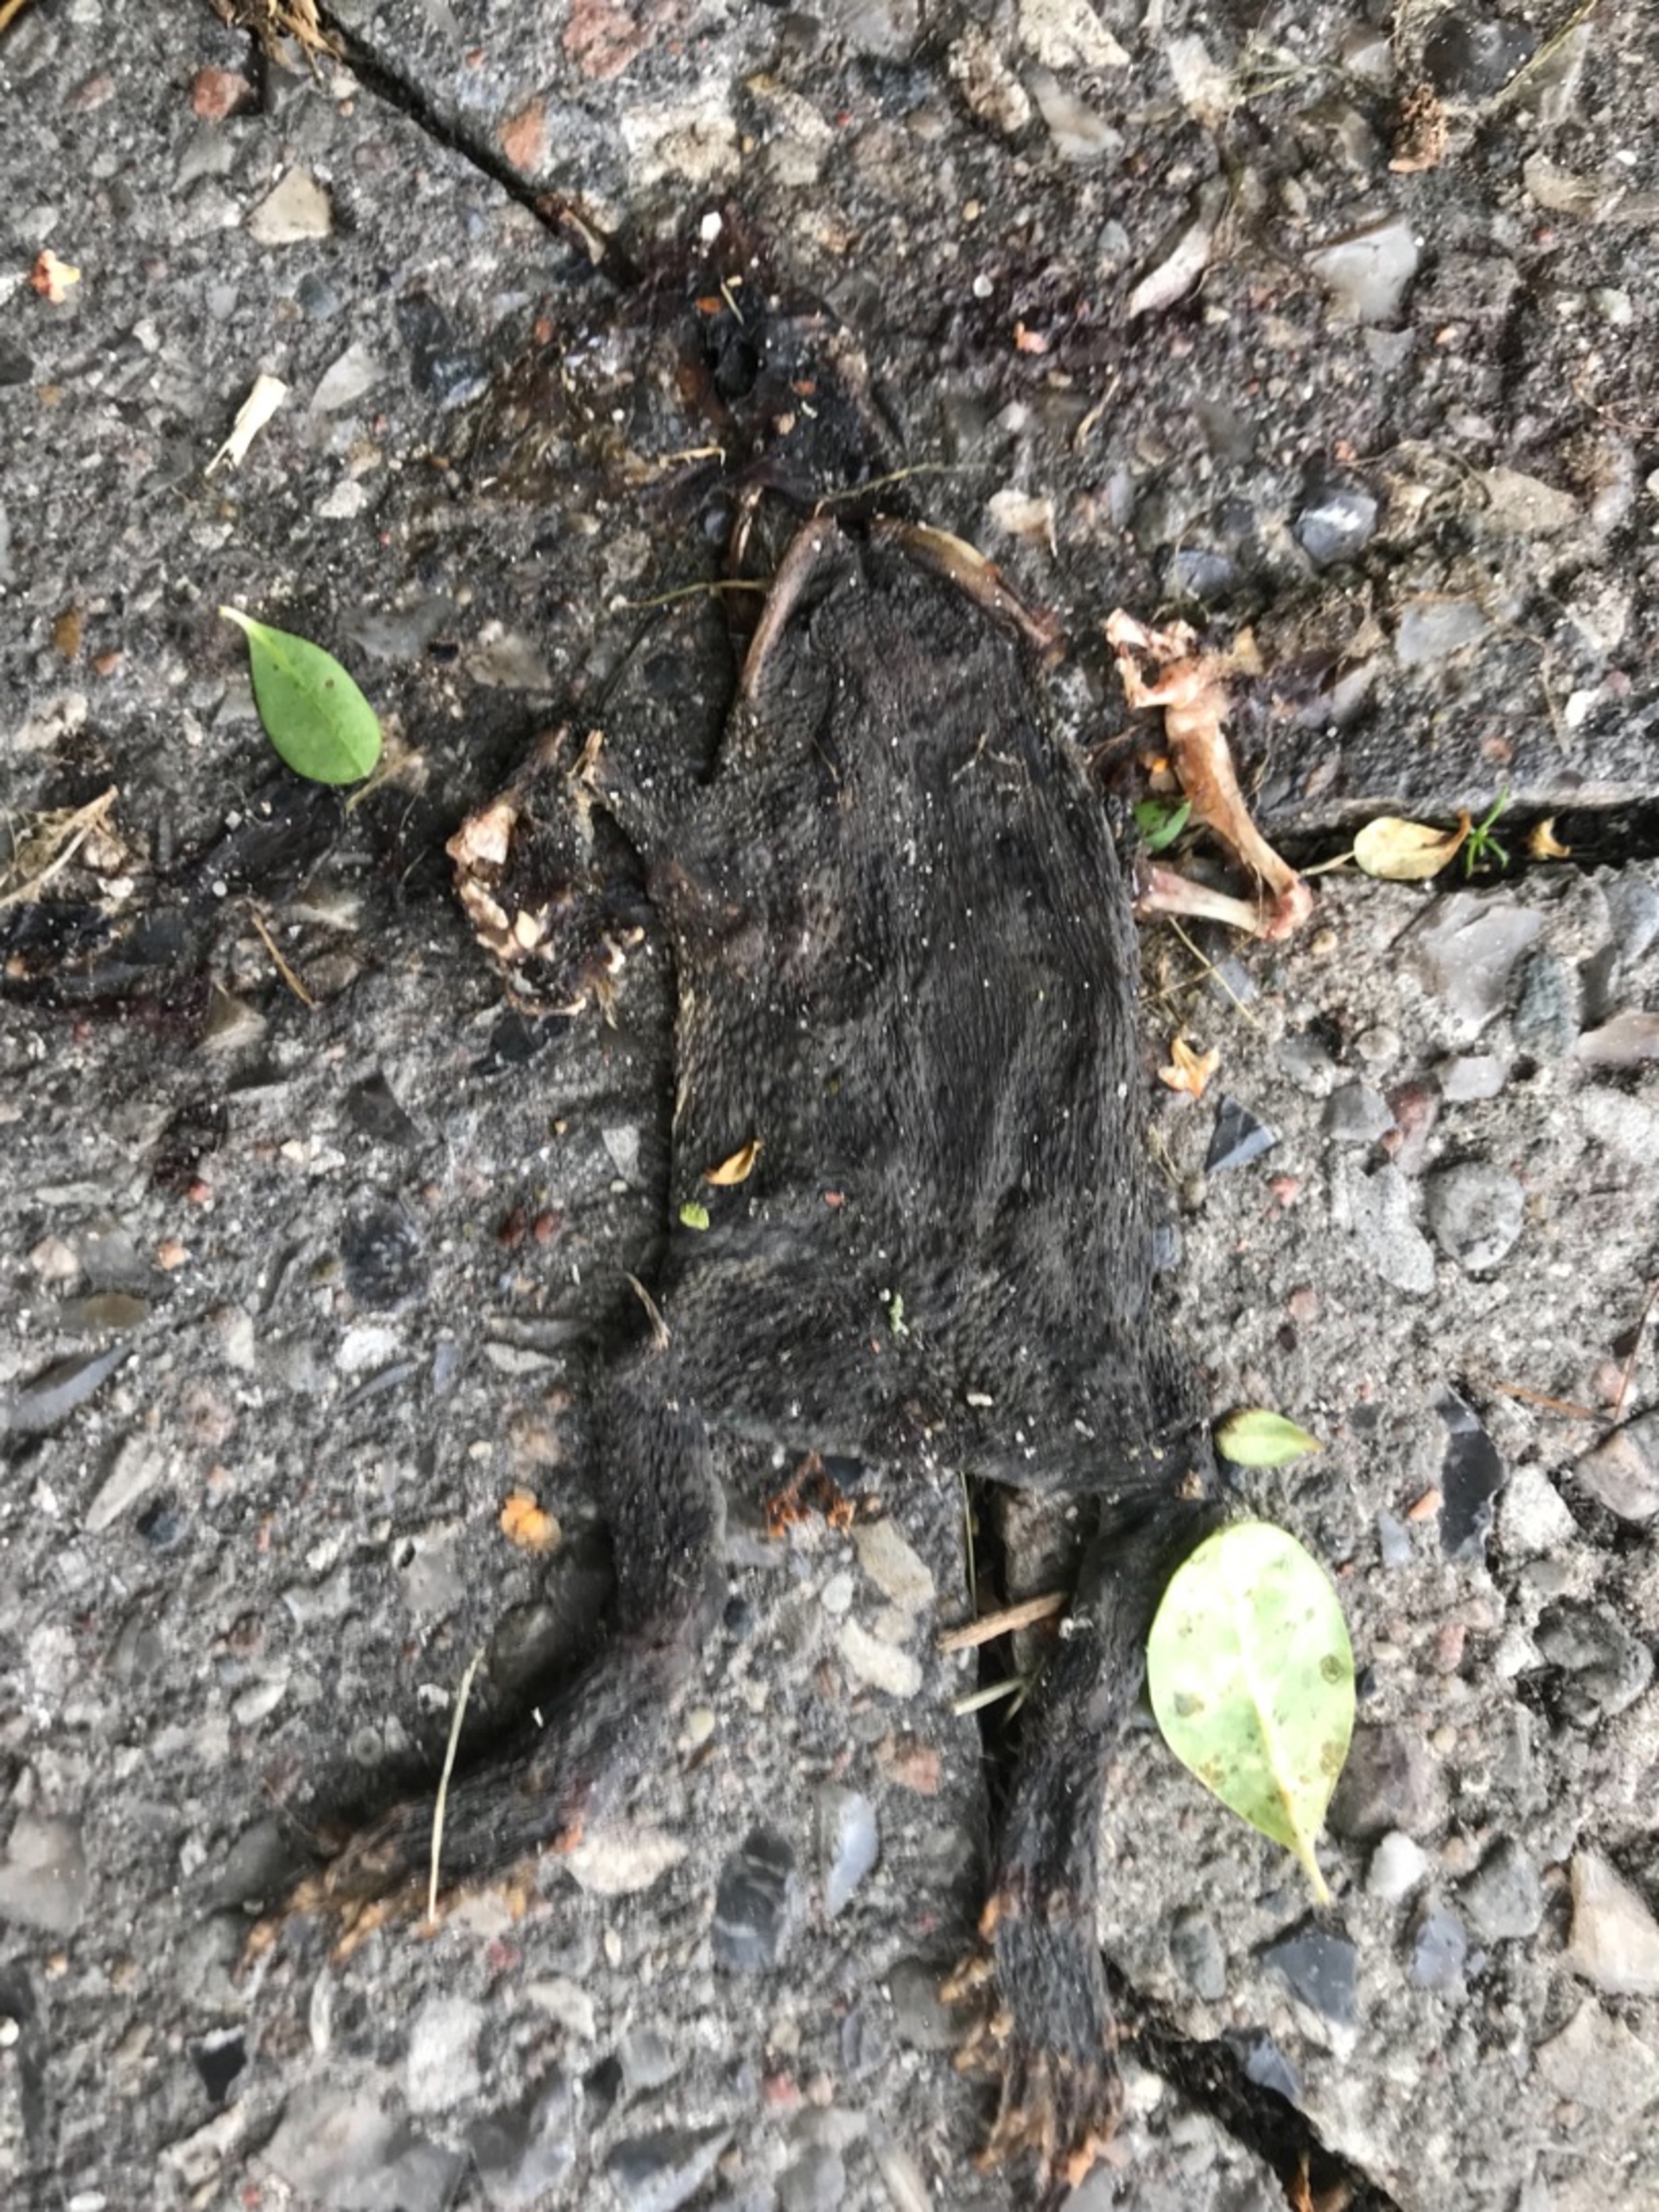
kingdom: Animalia
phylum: Chordata
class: Amphibia
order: Anura
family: Bufonidae
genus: Bufo
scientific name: Bufo bufo
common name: Skrubtudse
